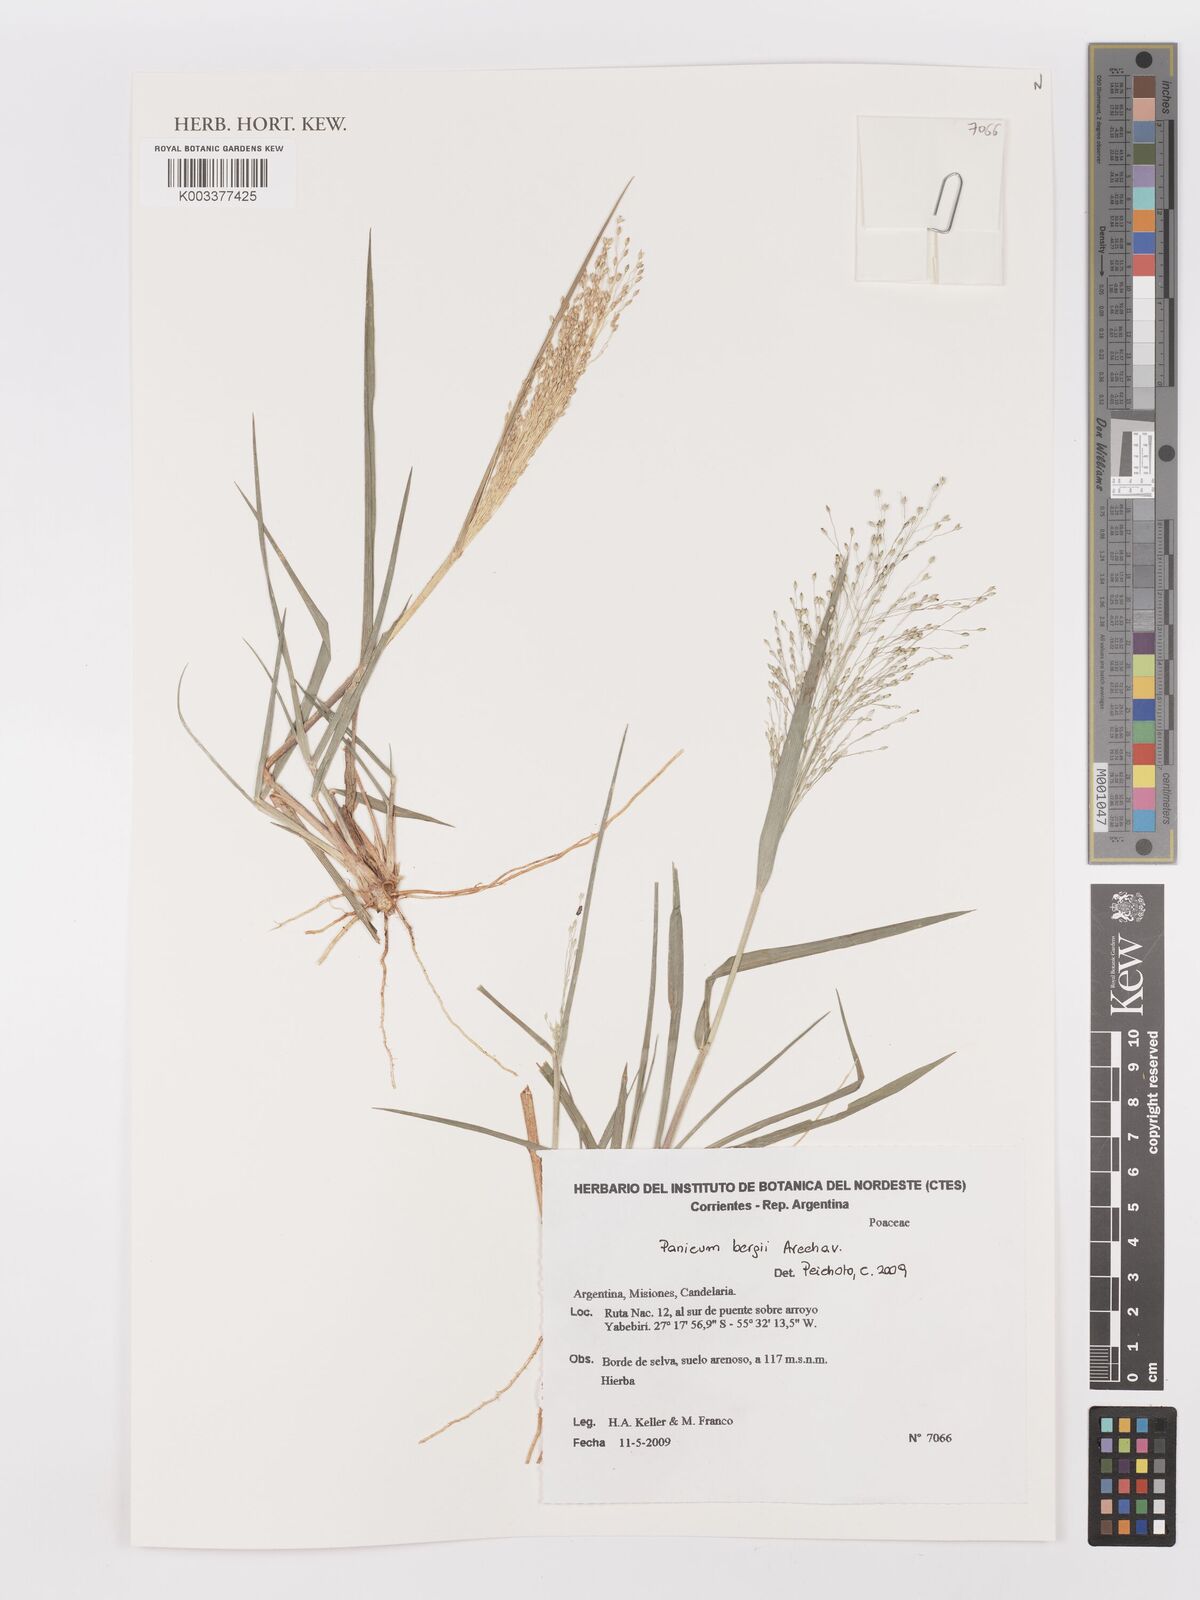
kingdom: Plantae
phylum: Tracheophyta
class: Liliopsida
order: Poales
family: Poaceae
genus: Panicum
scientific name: Panicum bergii
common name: Berg's panicgrass
